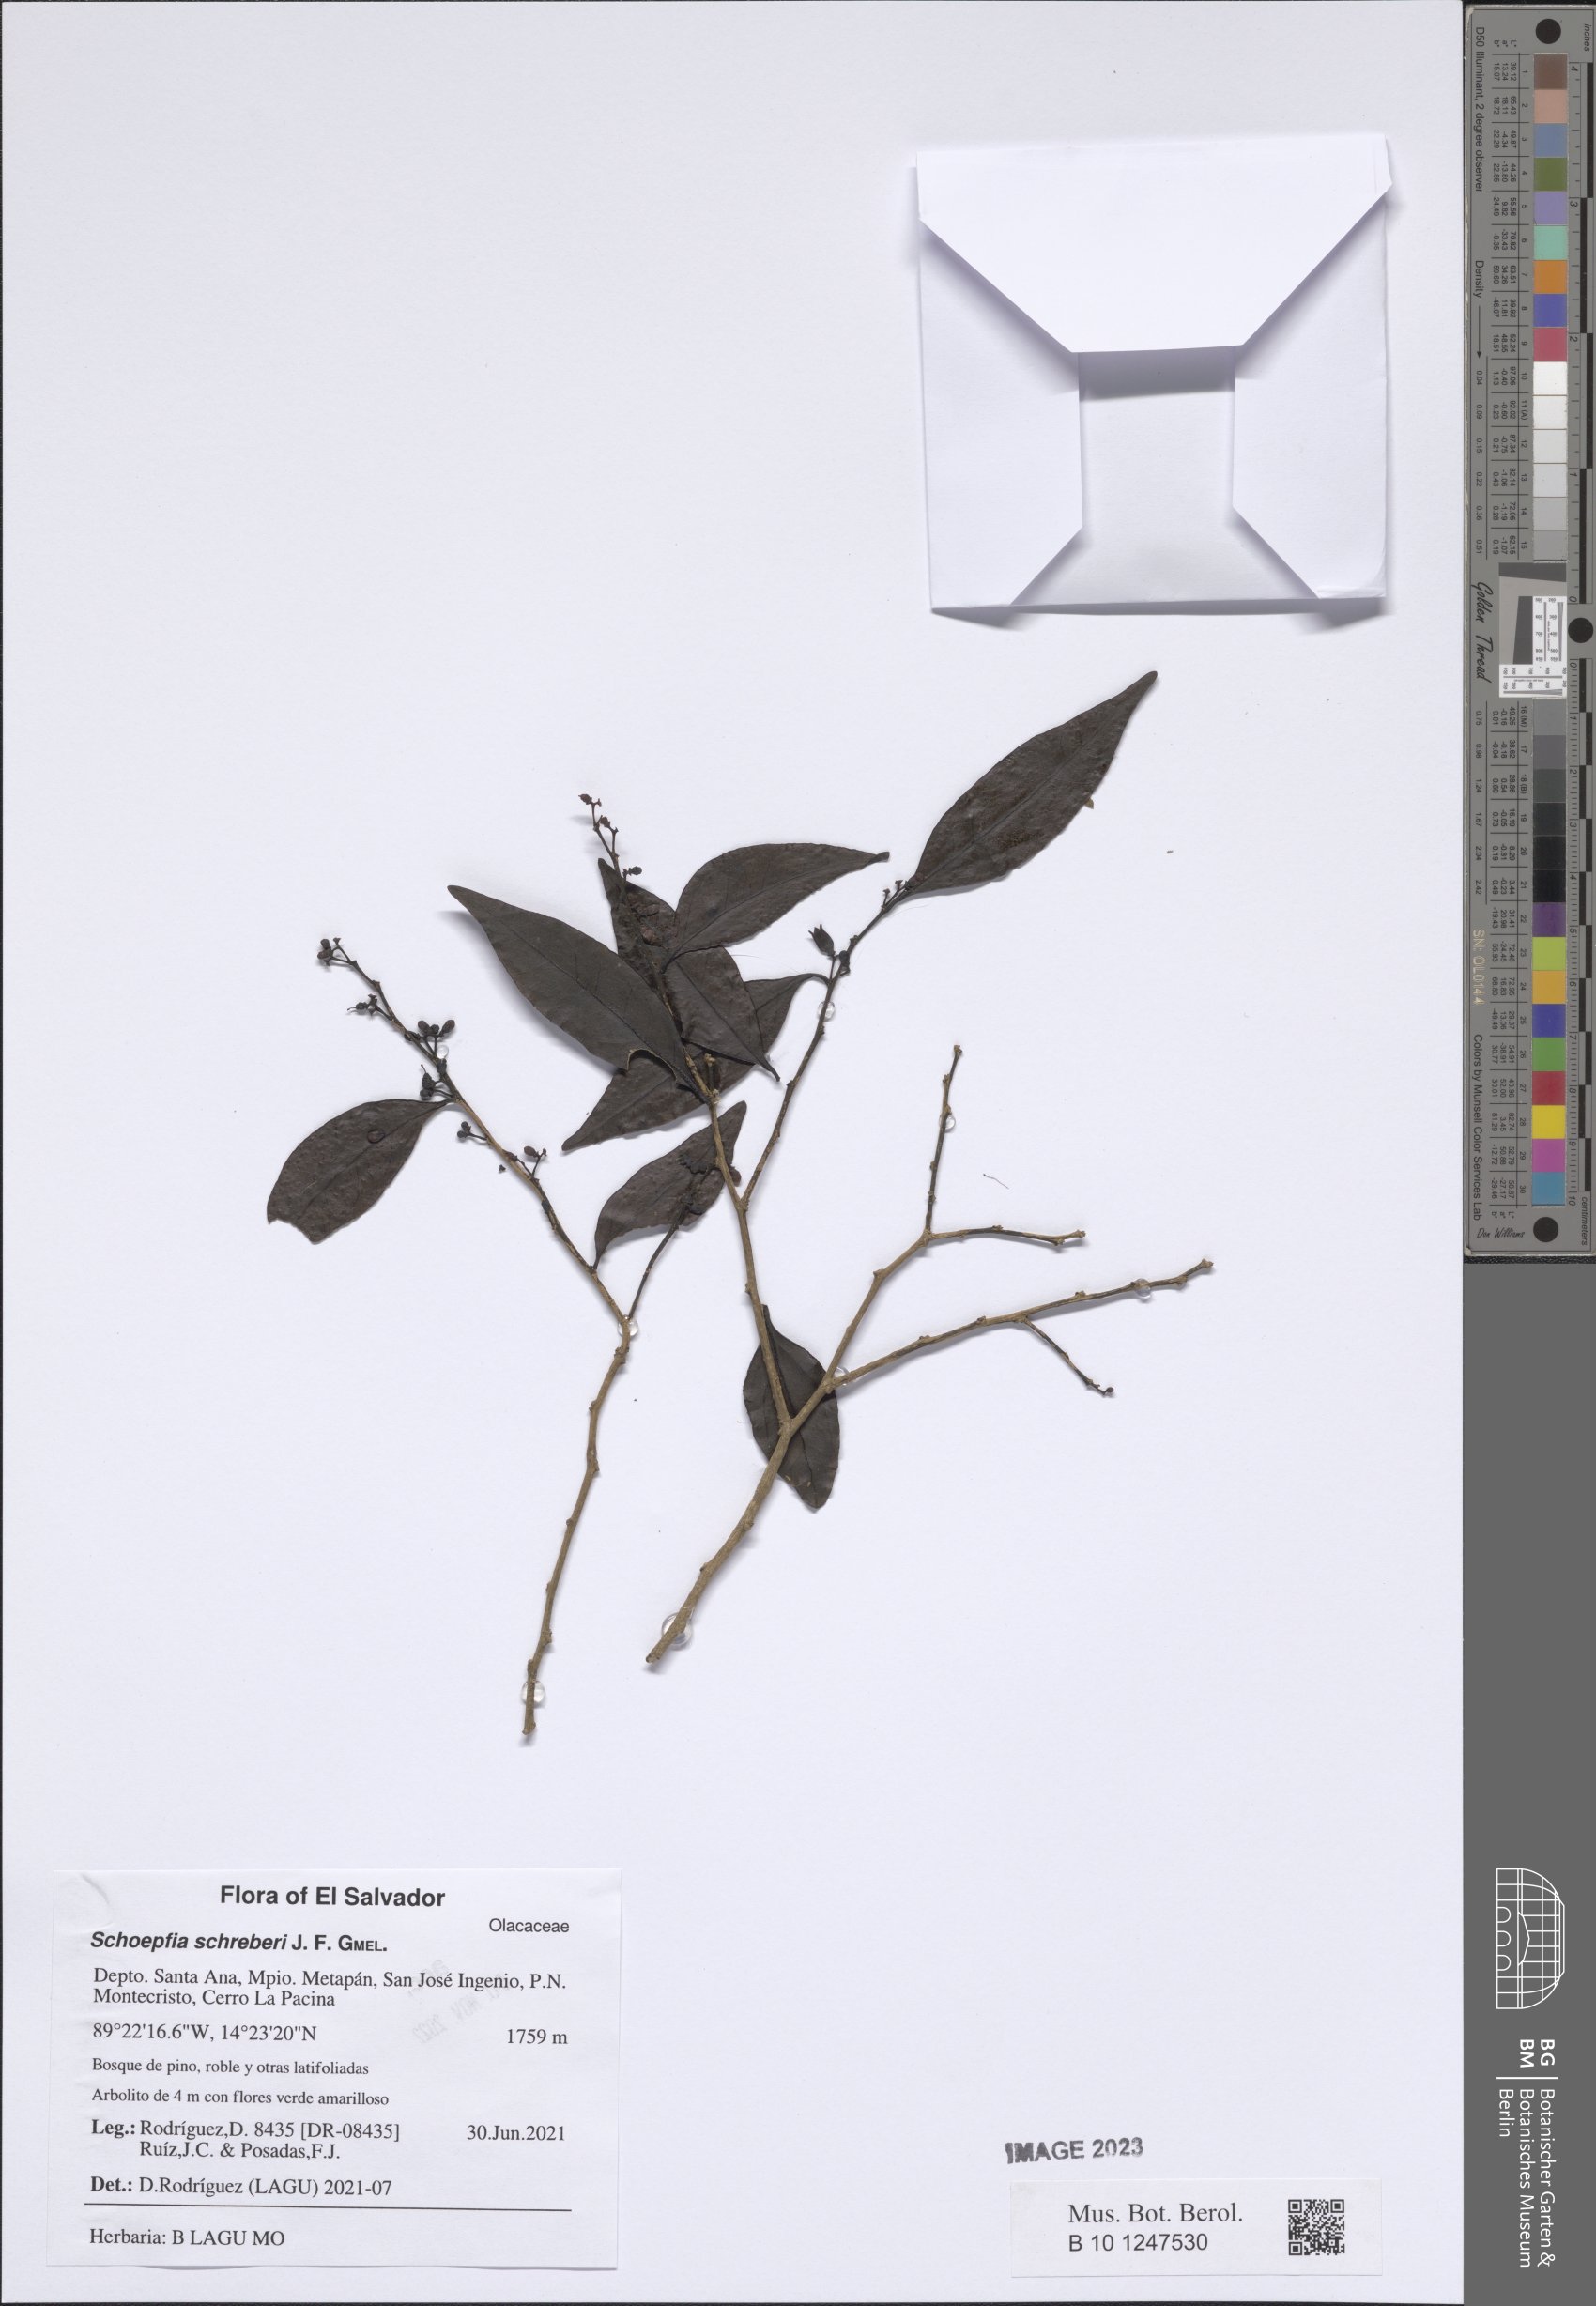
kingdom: Plantae
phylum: Tracheophyta
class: Magnoliopsida
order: Santalales
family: Schoepfiaceae
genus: Schoepfia
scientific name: Schoepfia schreberi
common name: Gulf graytwig
